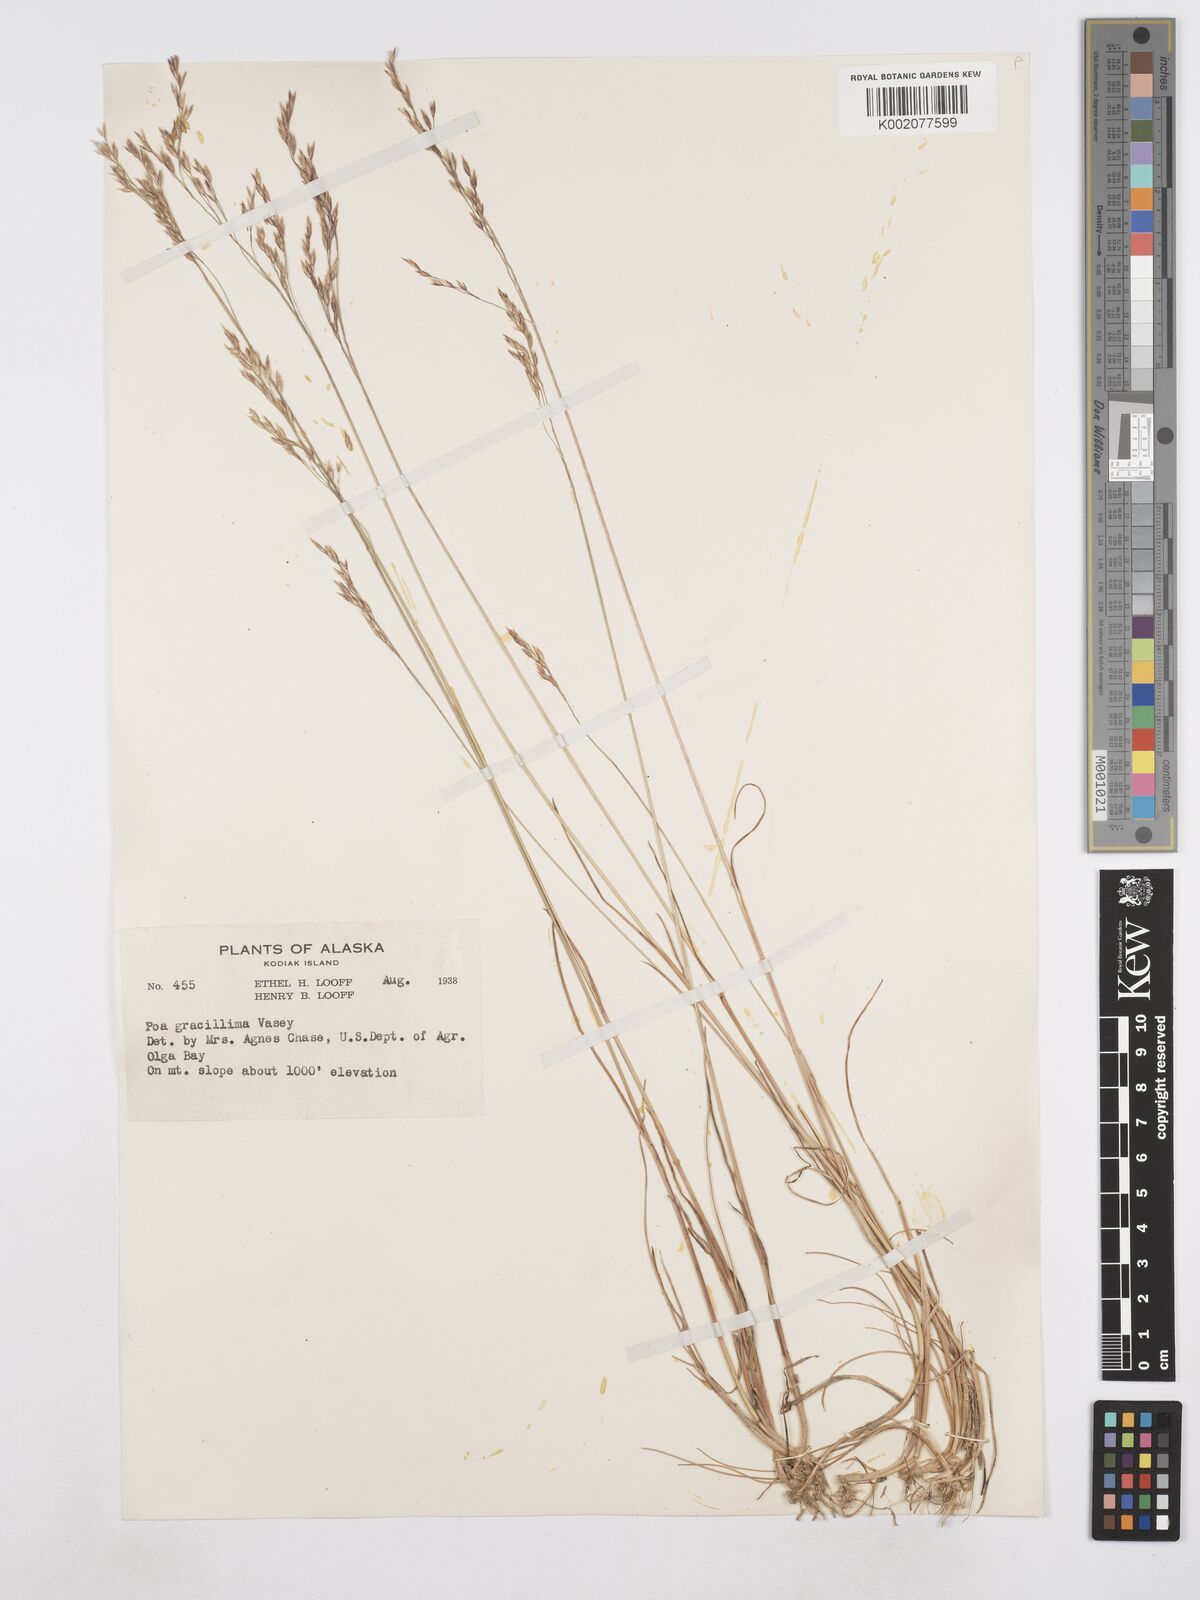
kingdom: Plantae
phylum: Tracheophyta
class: Liliopsida
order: Poales
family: Poaceae
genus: Poa
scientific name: Poa secunda
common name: Sandberg bluegrass
